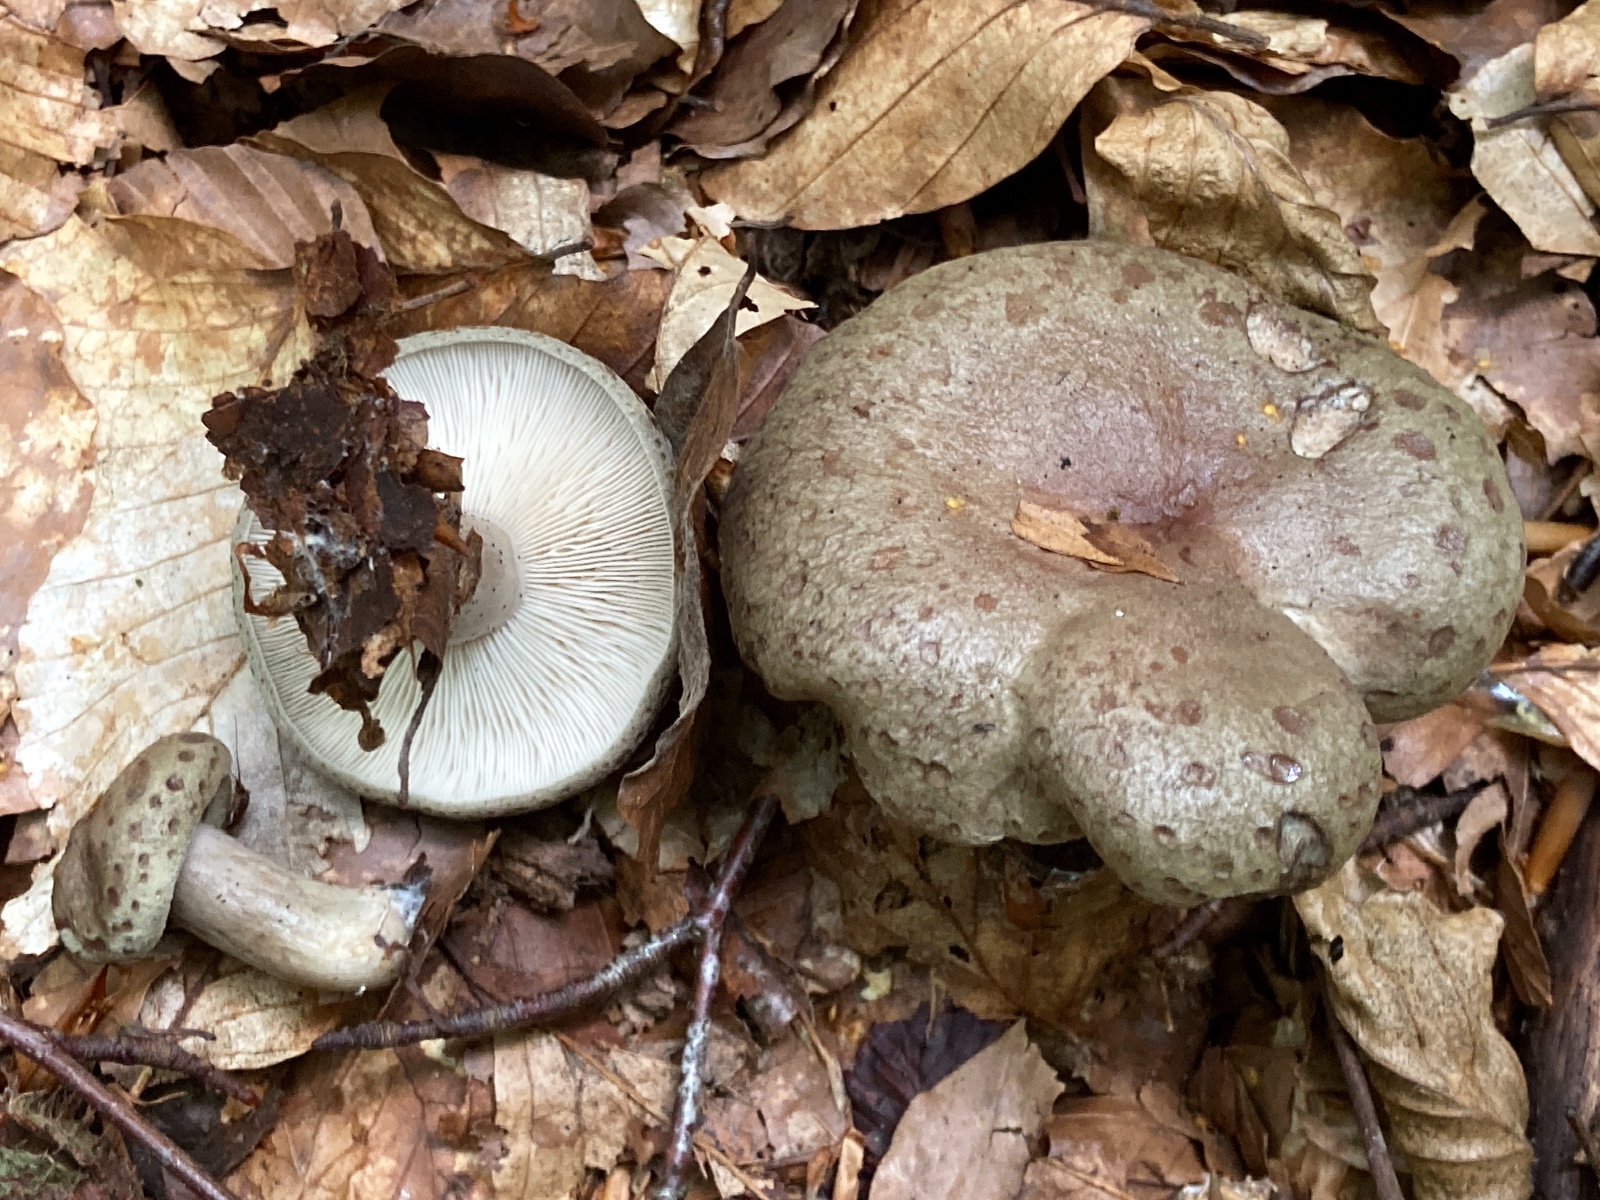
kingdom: Fungi
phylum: Basidiomycota
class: Agaricomycetes
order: Russulales
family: Russulaceae
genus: Lactarius
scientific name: Lactarius blennius
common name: dråbeplettet mælkehat
